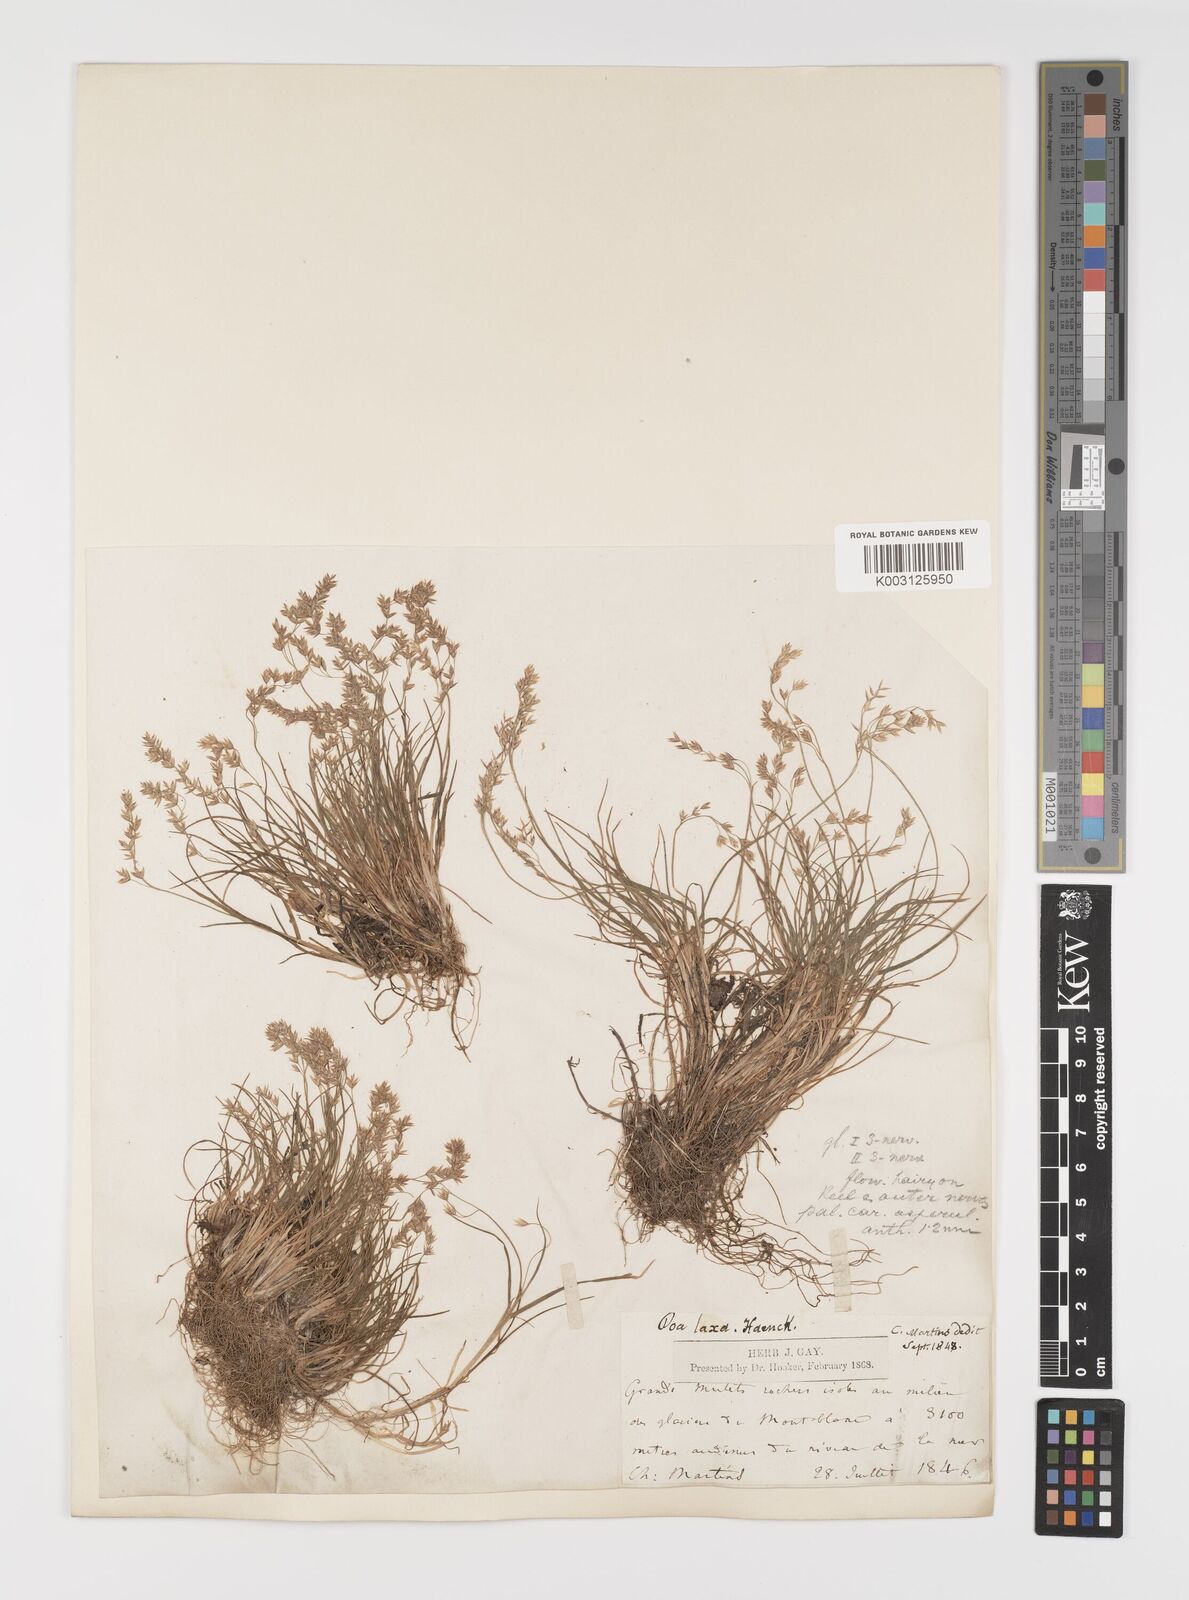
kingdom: Plantae
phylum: Tracheophyta
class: Liliopsida
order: Poales
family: Poaceae
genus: Poa
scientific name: Poa laxa
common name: Lax bluegrass
